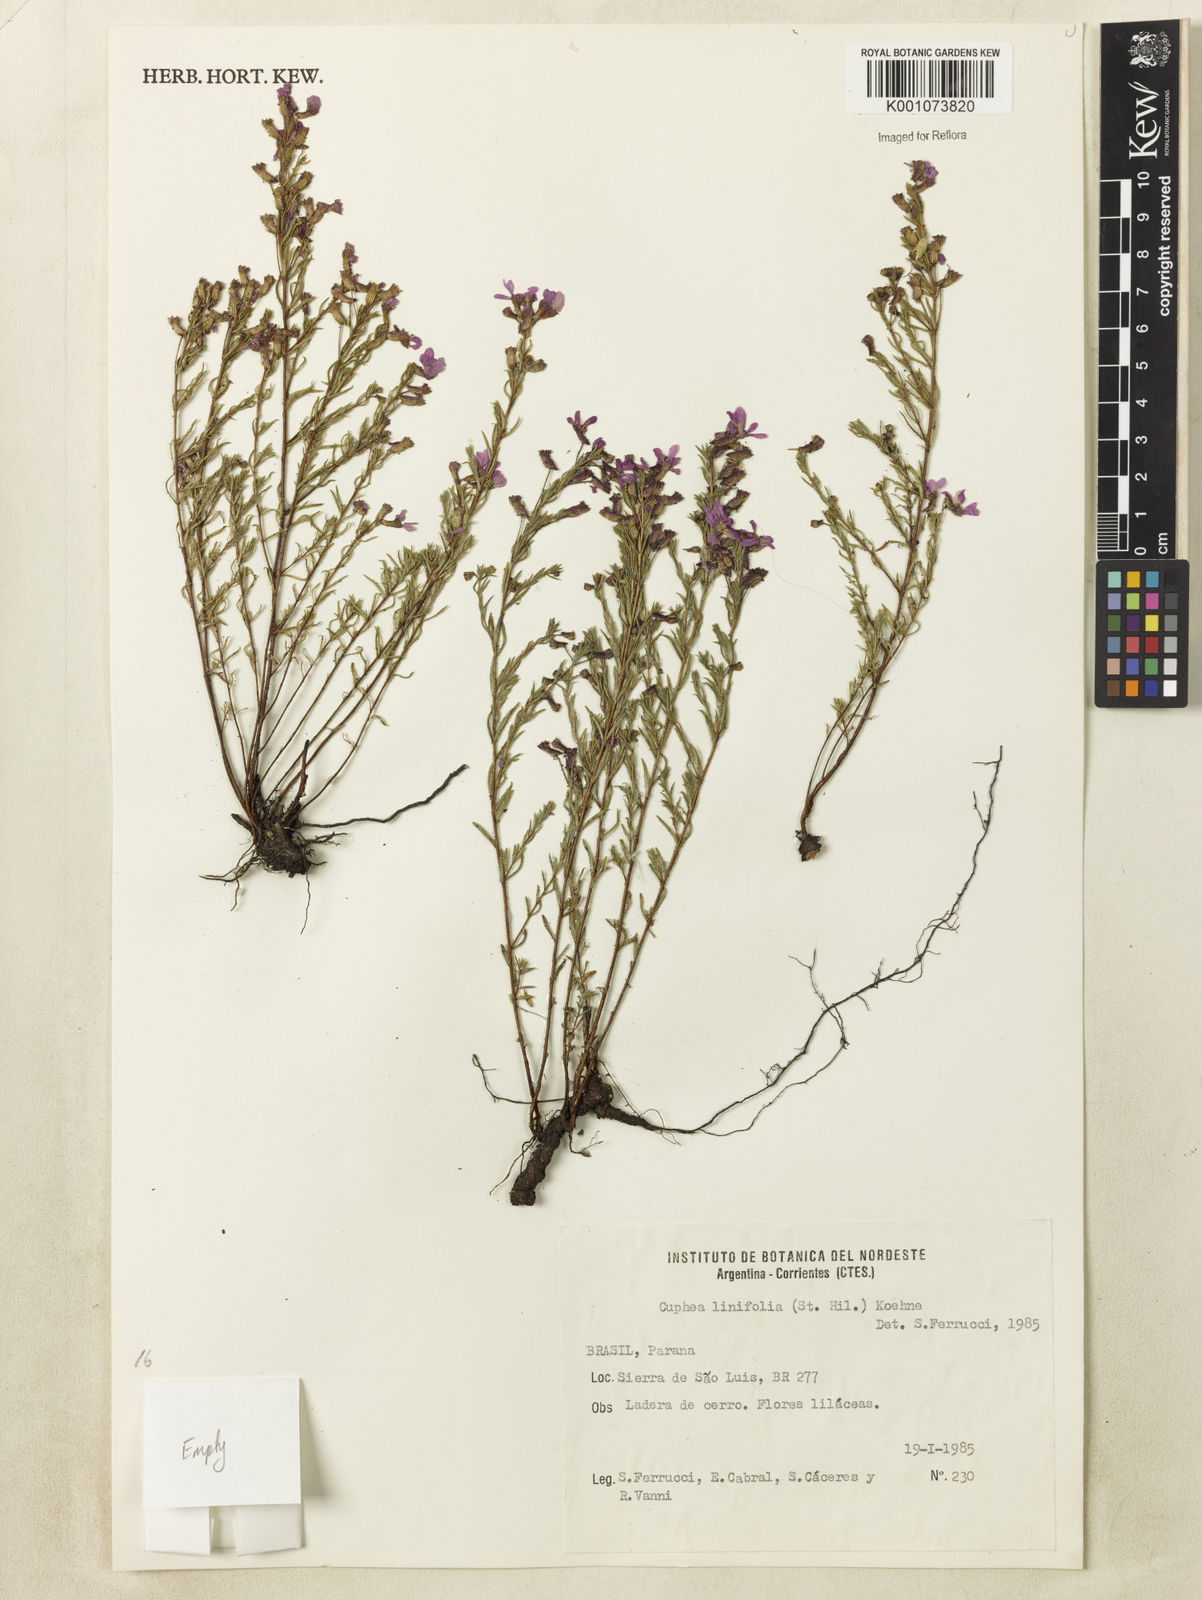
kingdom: Plantae
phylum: Tracheophyta
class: Magnoliopsida
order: Myrtales
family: Lythraceae
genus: Cuphea
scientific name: Cuphea linifolia
